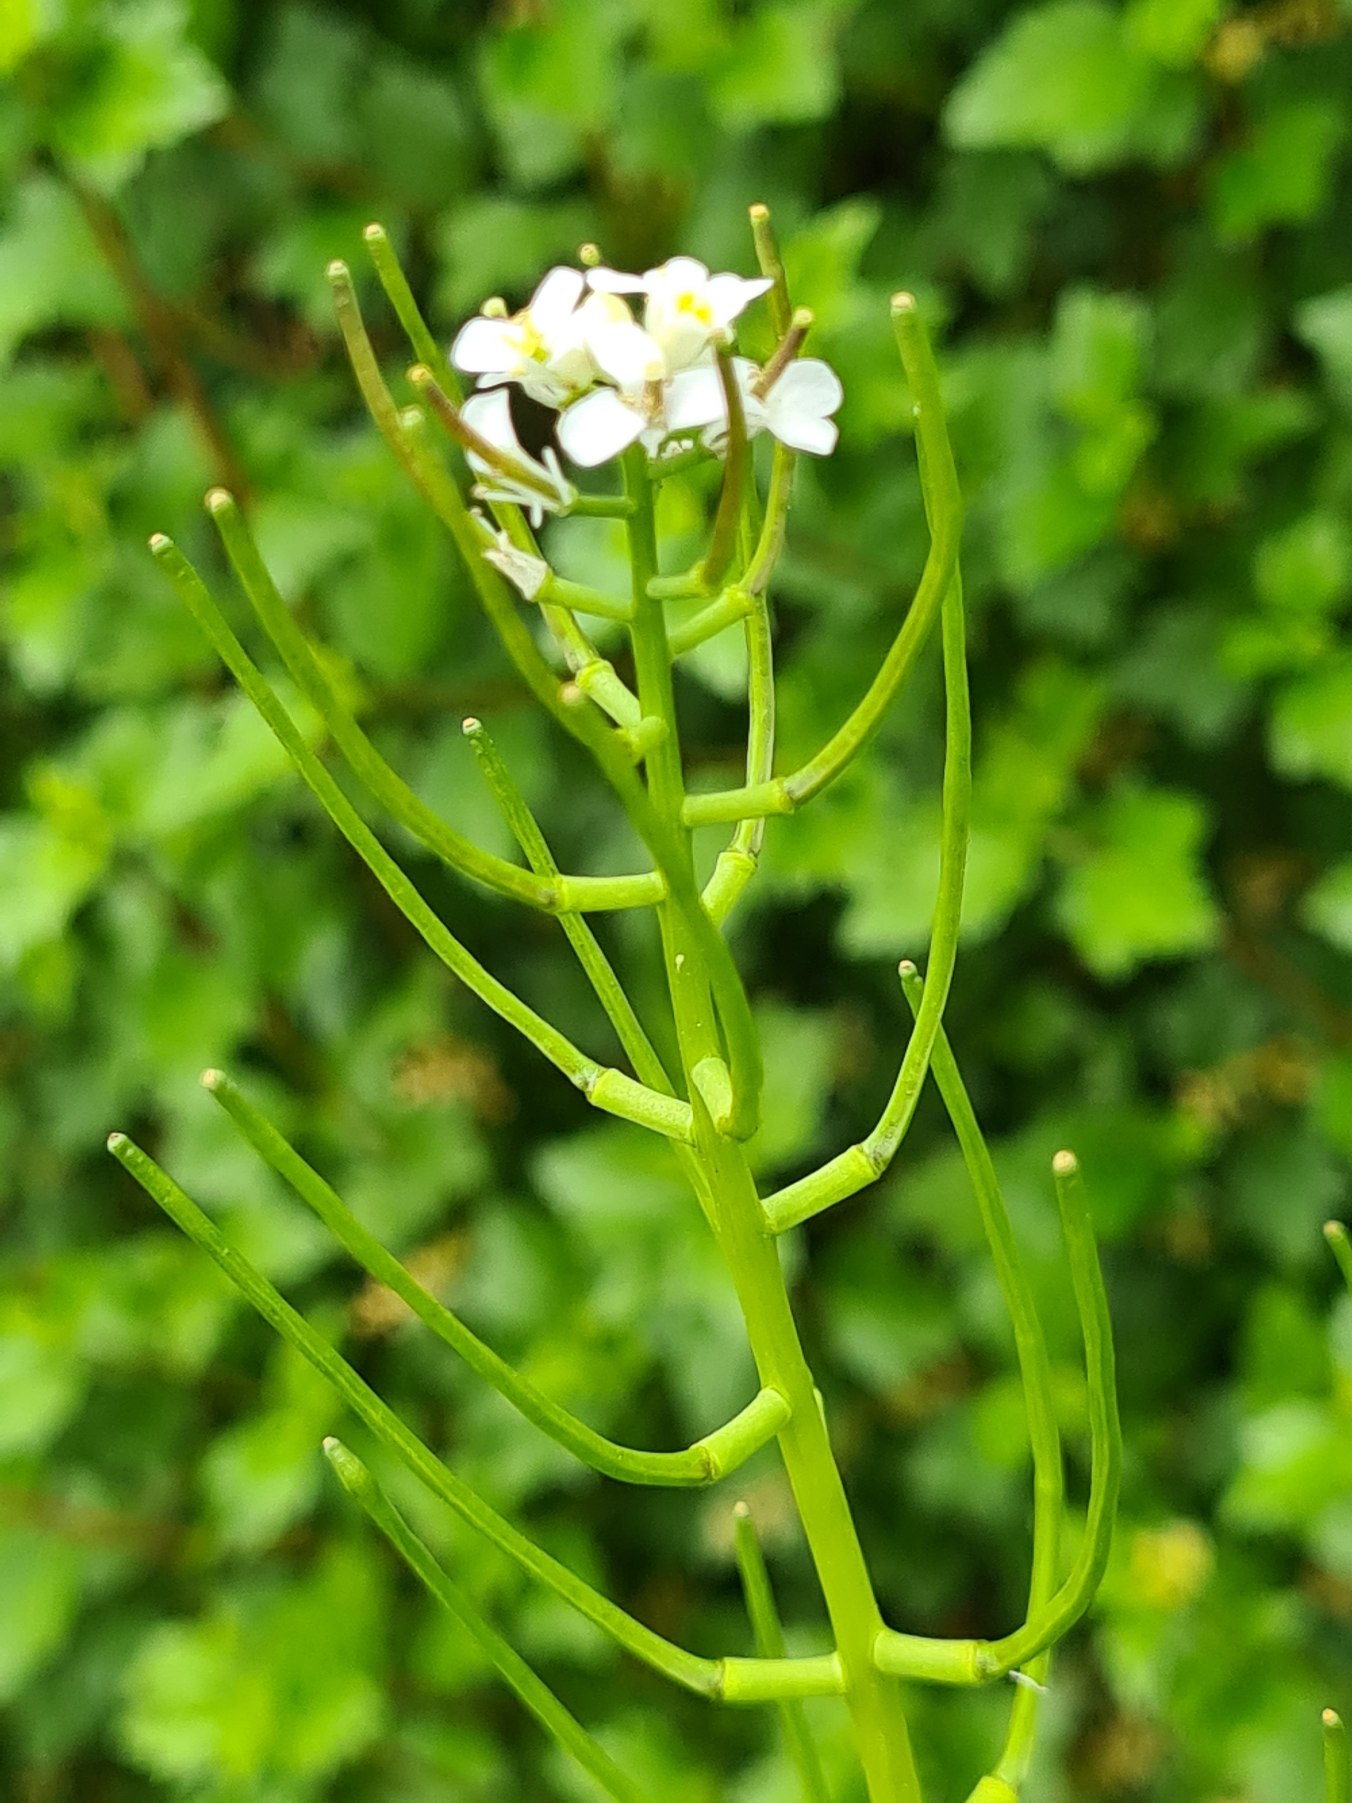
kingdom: Plantae
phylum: Tracheophyta
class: Magnoliopsida
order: Brassicales
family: Brassicaceae
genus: Alliaria
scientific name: Alliaria petiolata
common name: Løgkarse
